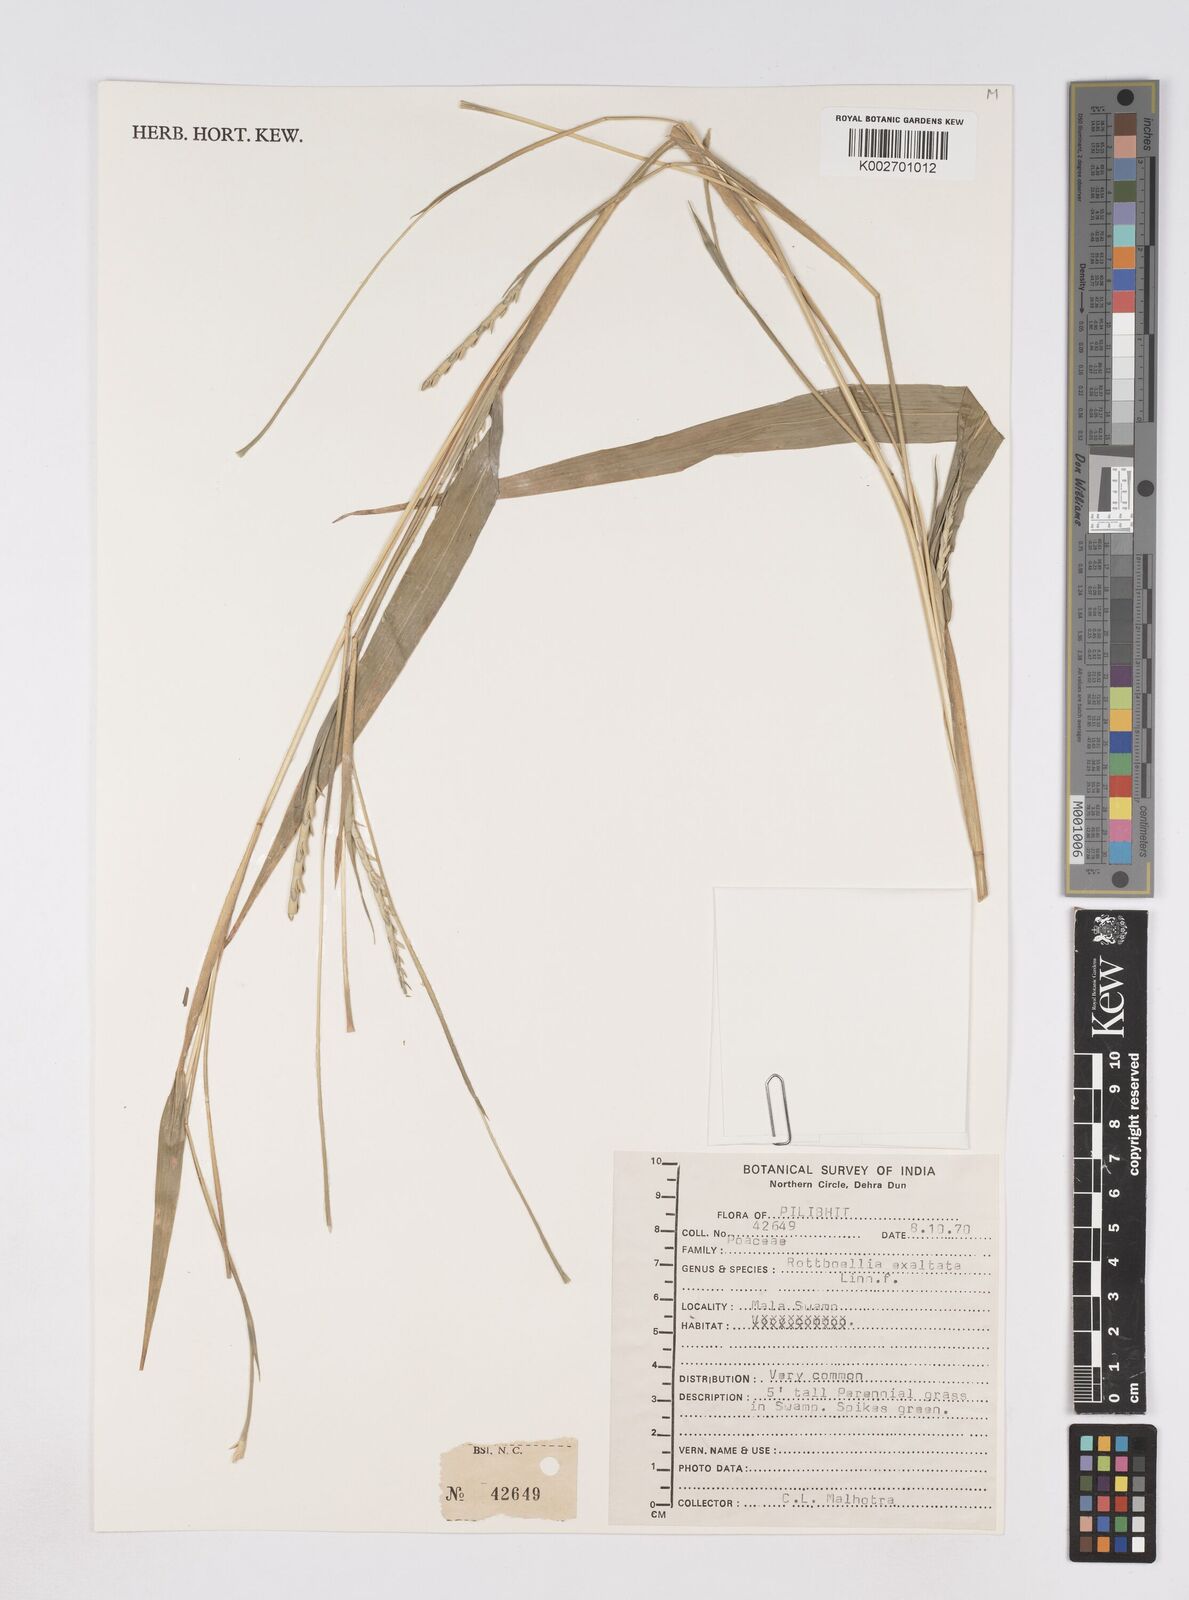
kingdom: Plantae
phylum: Tracheophyta
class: Liliopsida
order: Poales
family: Poaceae
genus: Ophiuros
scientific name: Ophiuros exaltatus
